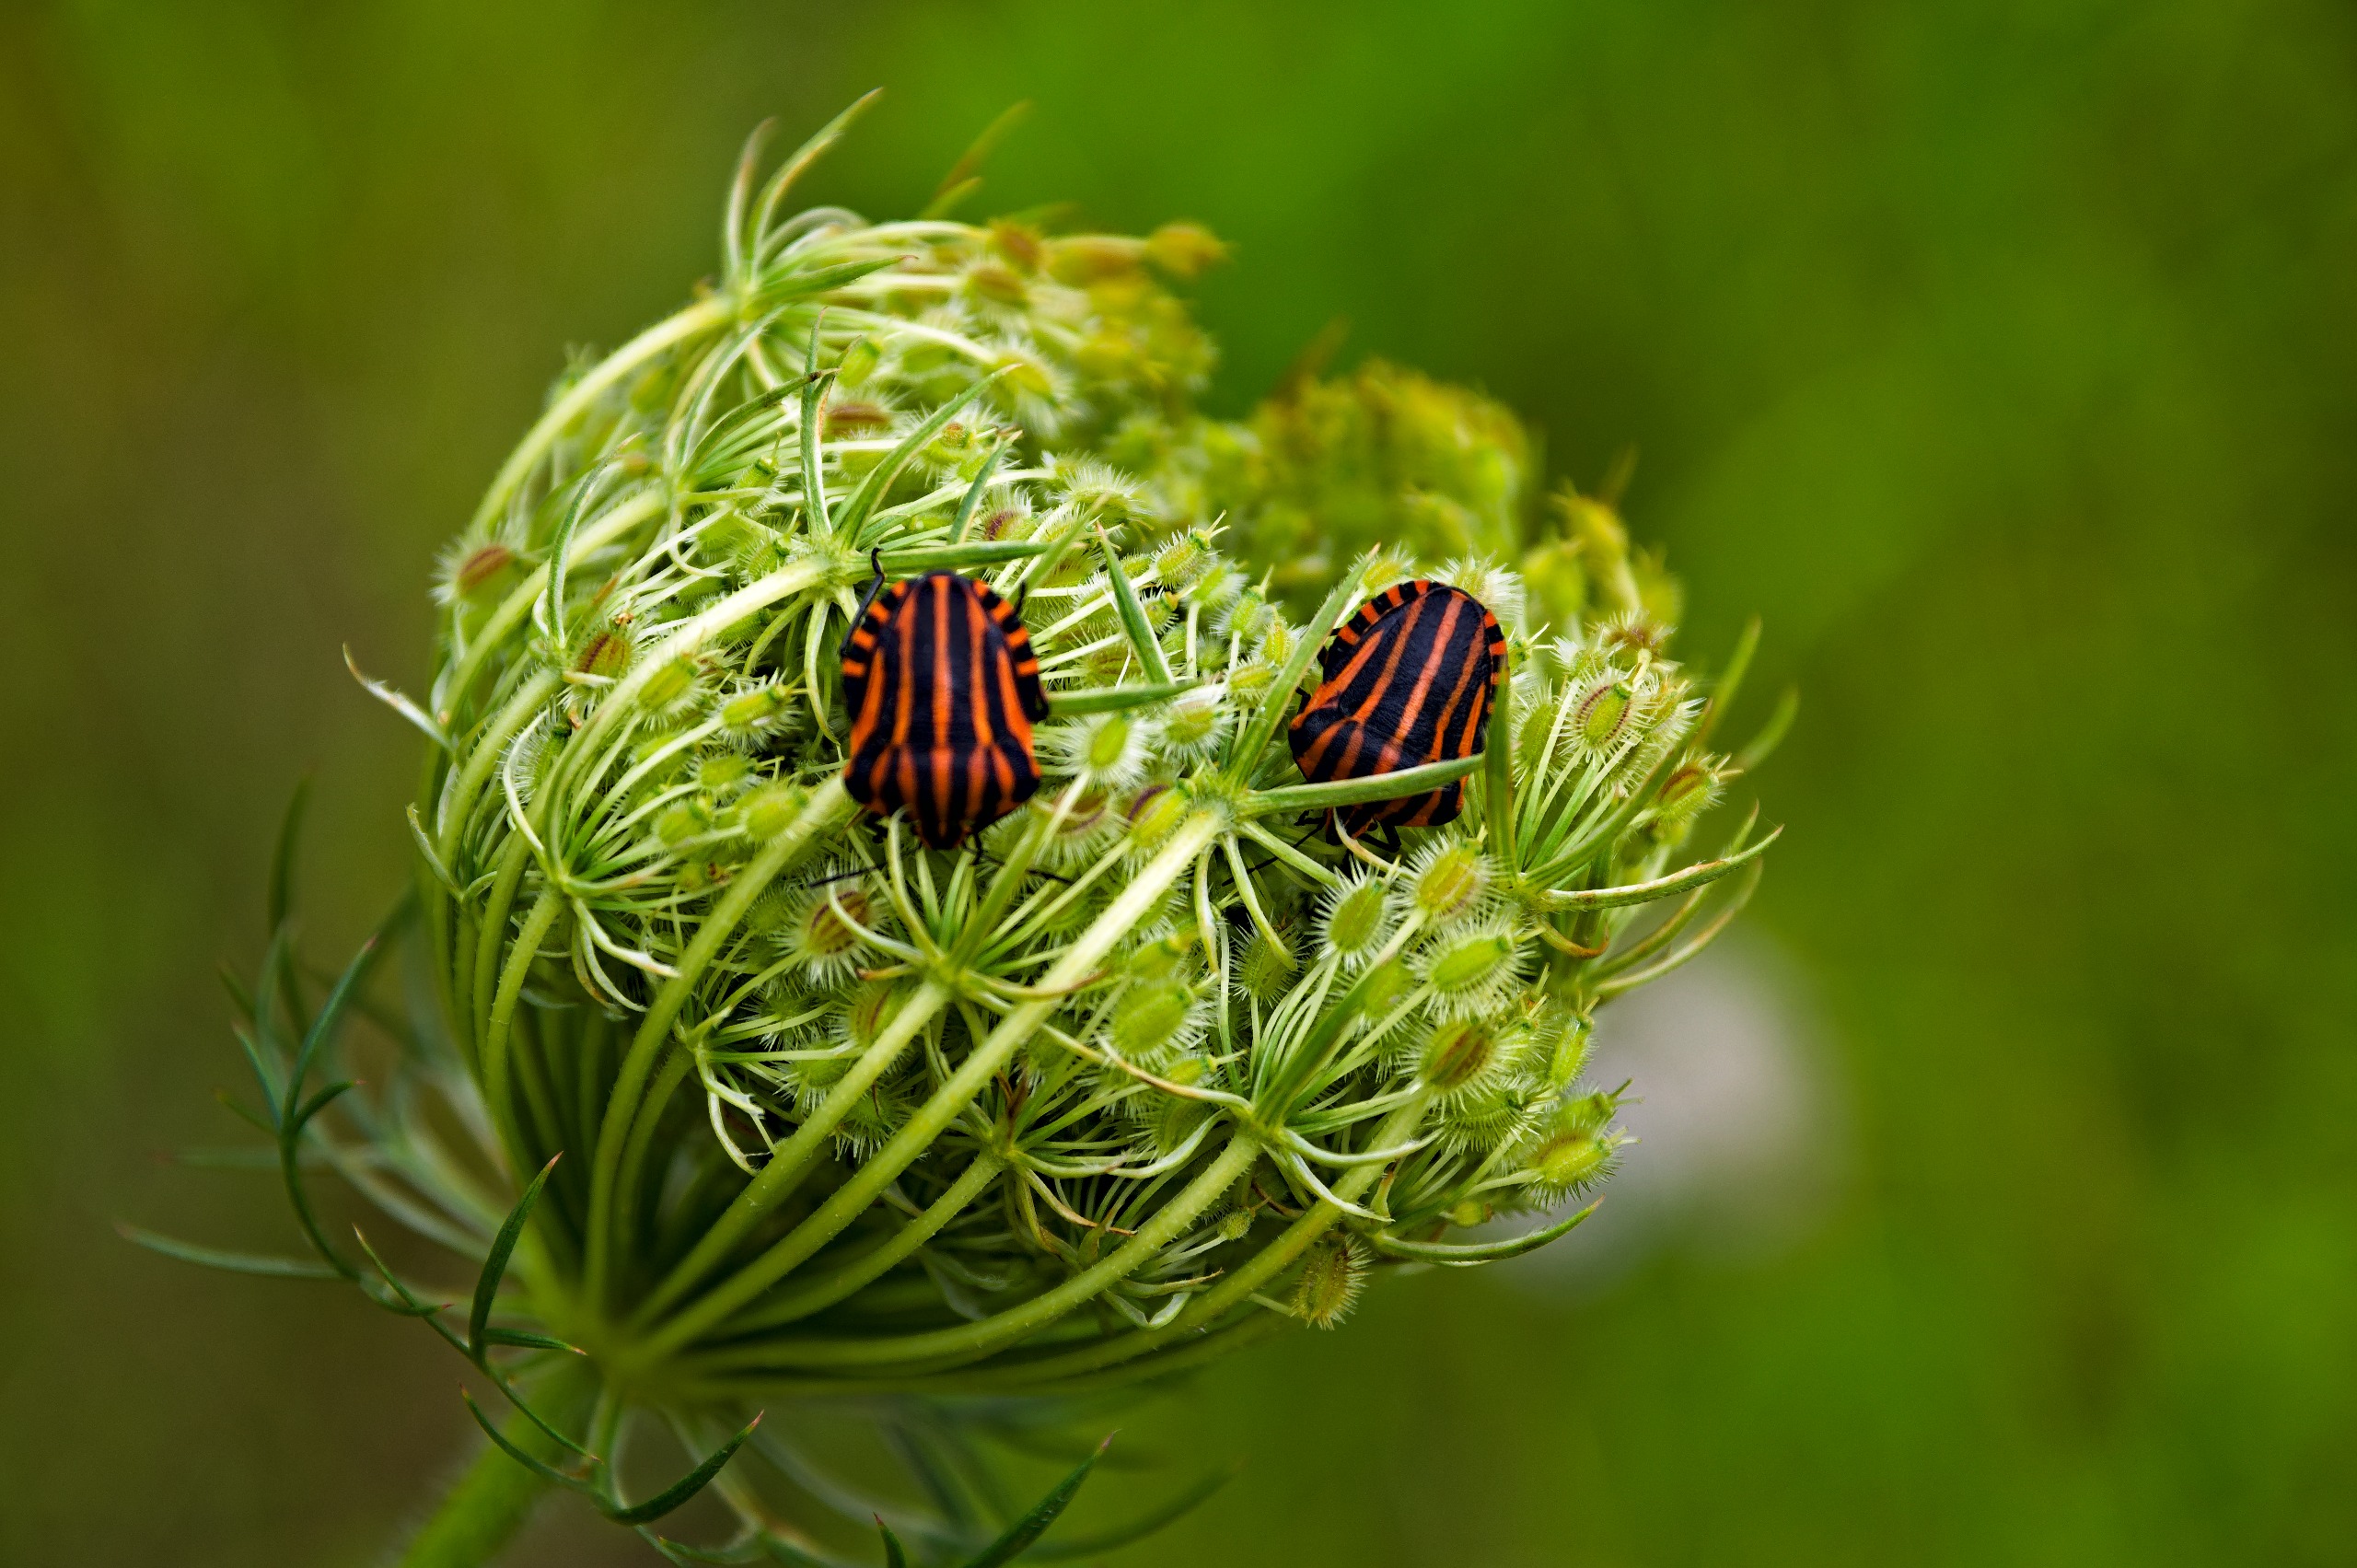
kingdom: Animalia
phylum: Arthropoda
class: Insecta
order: Hemiptera
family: Pentatomidae
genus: Graphosoma
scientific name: Graphosoma italicum
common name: Stribetæge
